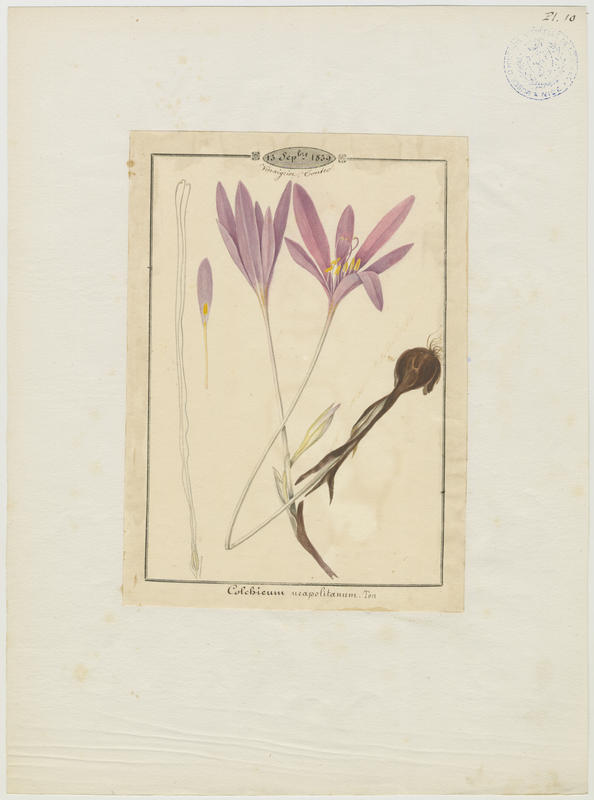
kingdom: Plantae
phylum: Tracheophyta
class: Liliopsida
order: Liliales
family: Colchicaceae
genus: Colchicum
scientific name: Colchicum parnassicum
